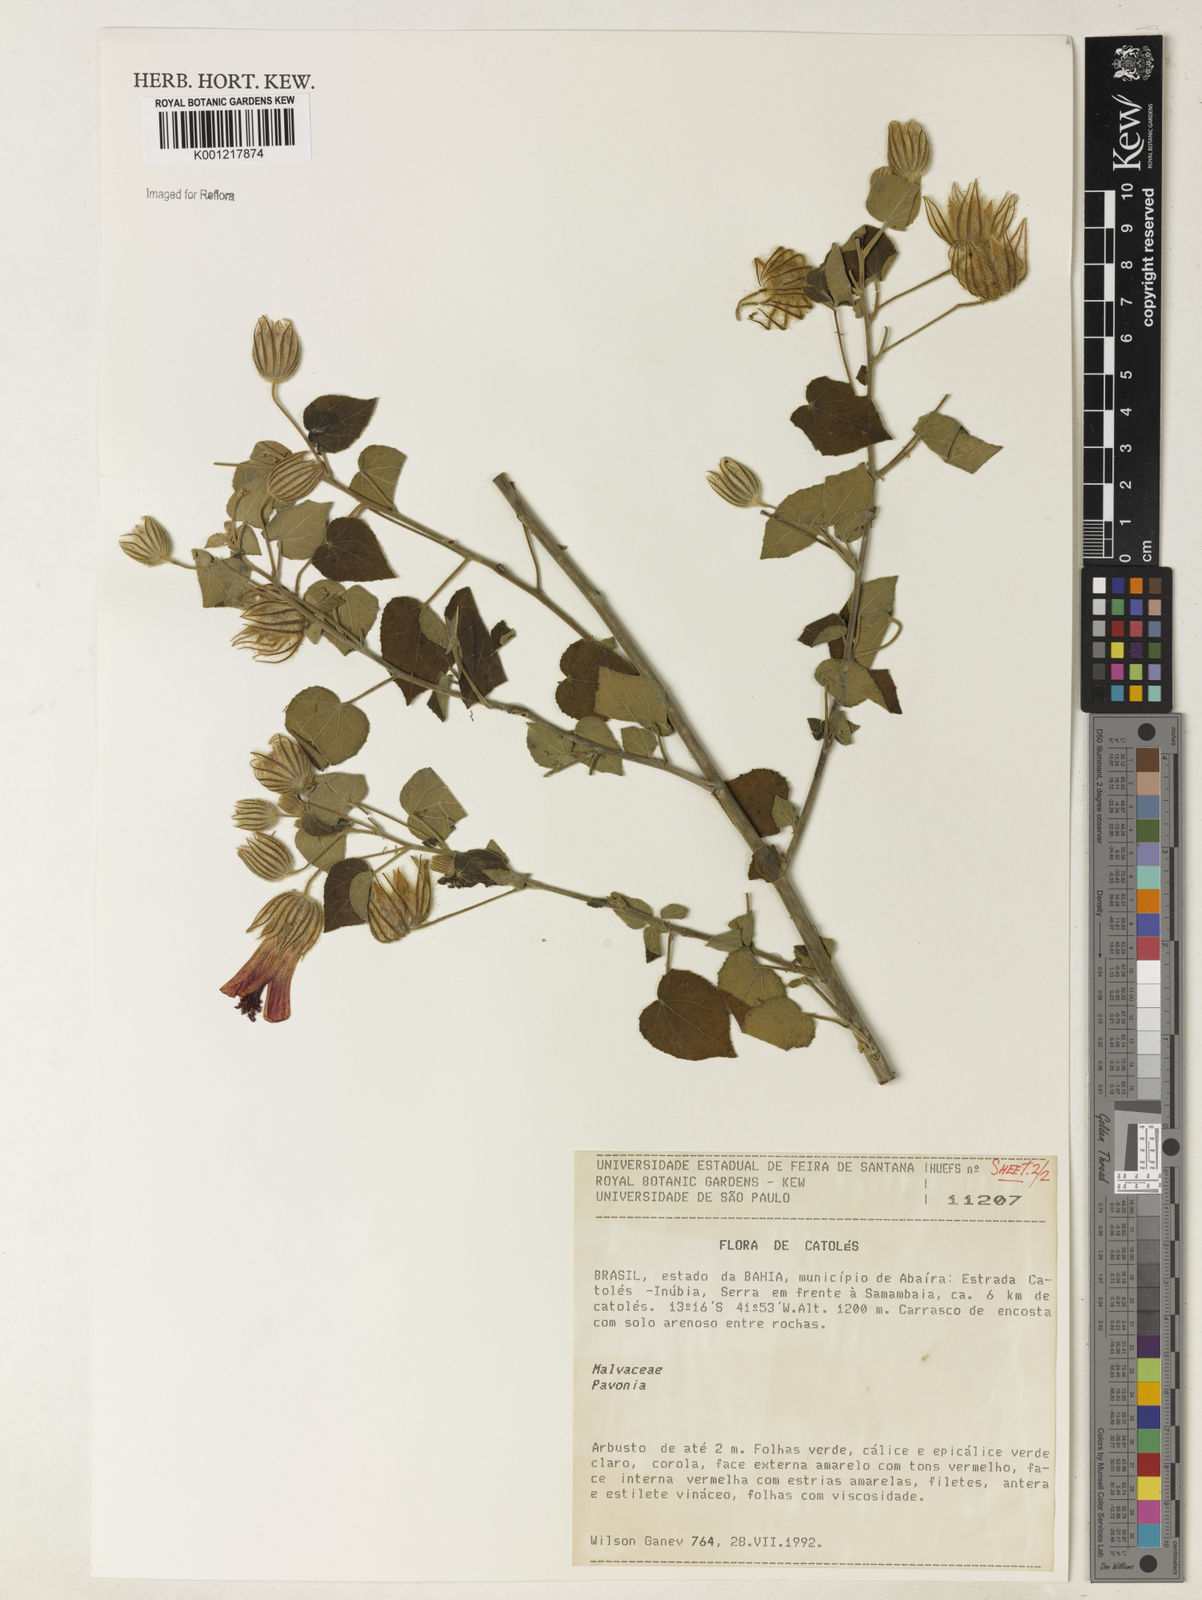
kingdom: Plantae
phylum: Tracheophyta
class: Magnoliopsida
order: Malvales
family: Malvaceae
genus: Pavonia
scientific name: Pavonia
